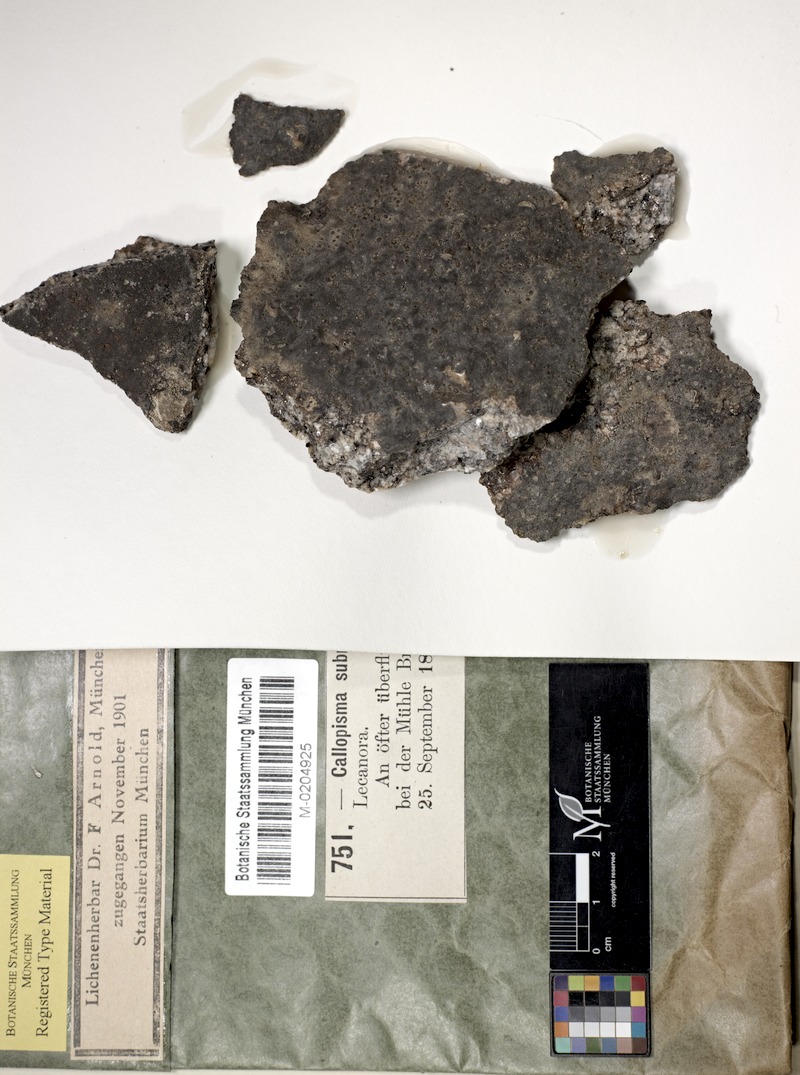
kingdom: Fungi
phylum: Ascomycota
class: Lecanoromycetes
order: Teloschistales
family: Teloschistaceae
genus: Caloplaca
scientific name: Caloplaca submergenda
